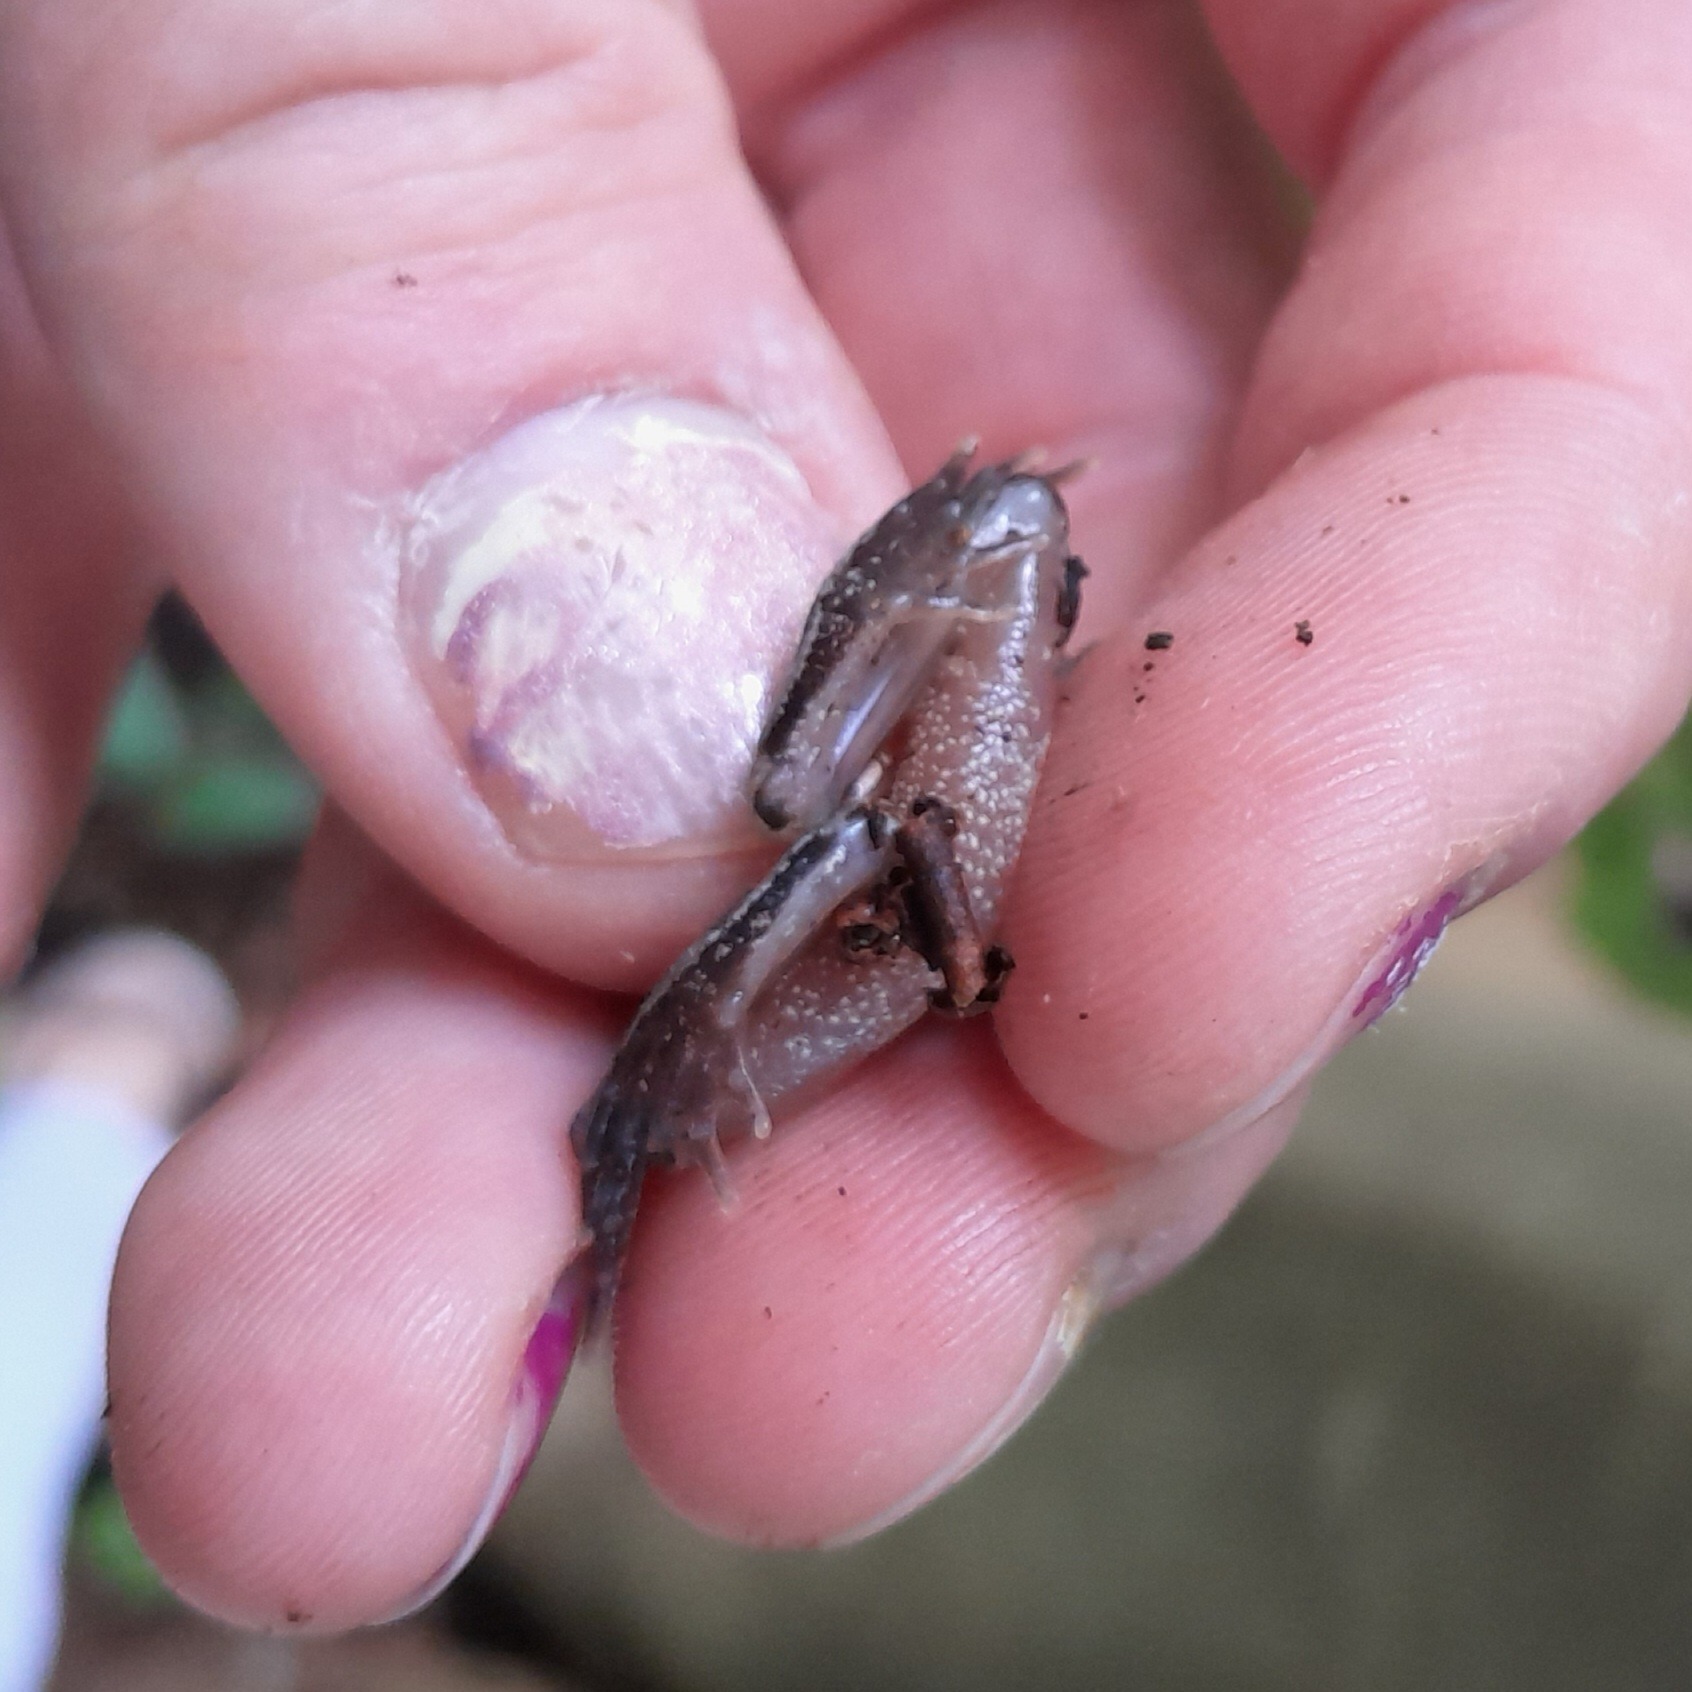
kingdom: Animalia
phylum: Chordata
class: Amphibia
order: Anura
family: Ranidae
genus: Rana
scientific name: Rana temporaria
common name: Butsnudet frø
